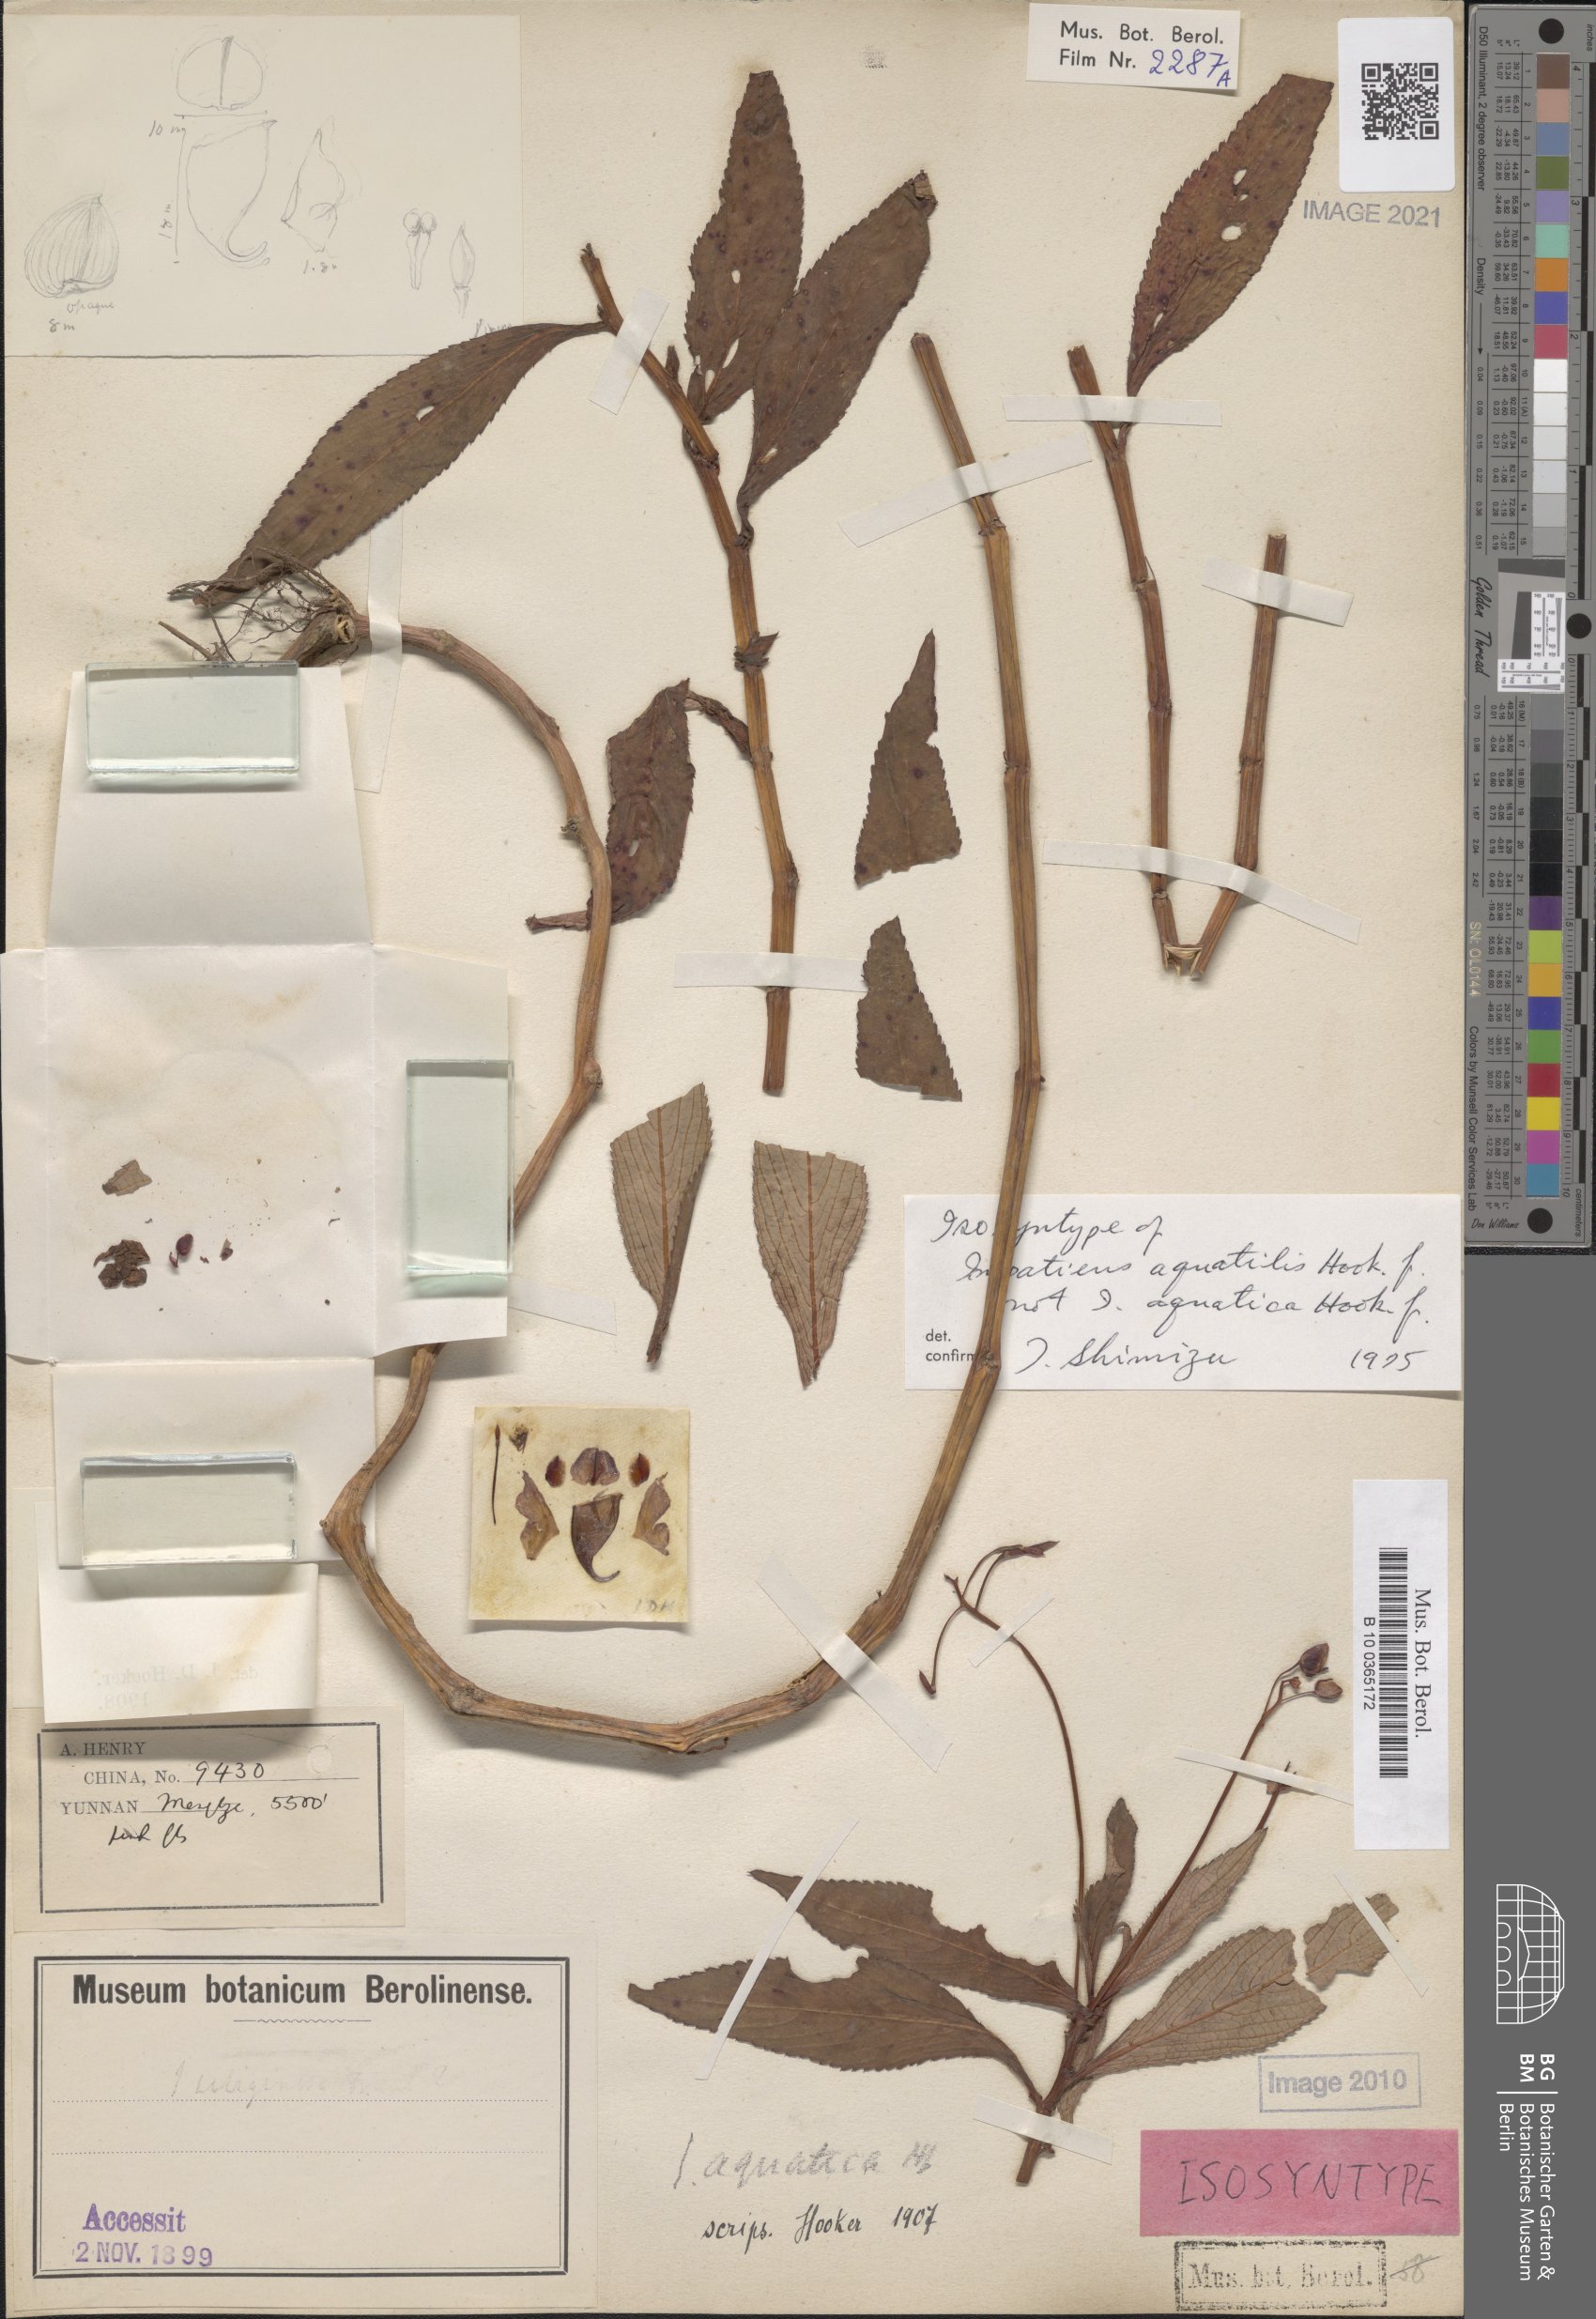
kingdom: Plantae
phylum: Tracheophyta
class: Magnoliopsida
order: Ericales
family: Balsaminaceae
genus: Impatiens
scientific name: Impatiens aquatilis
